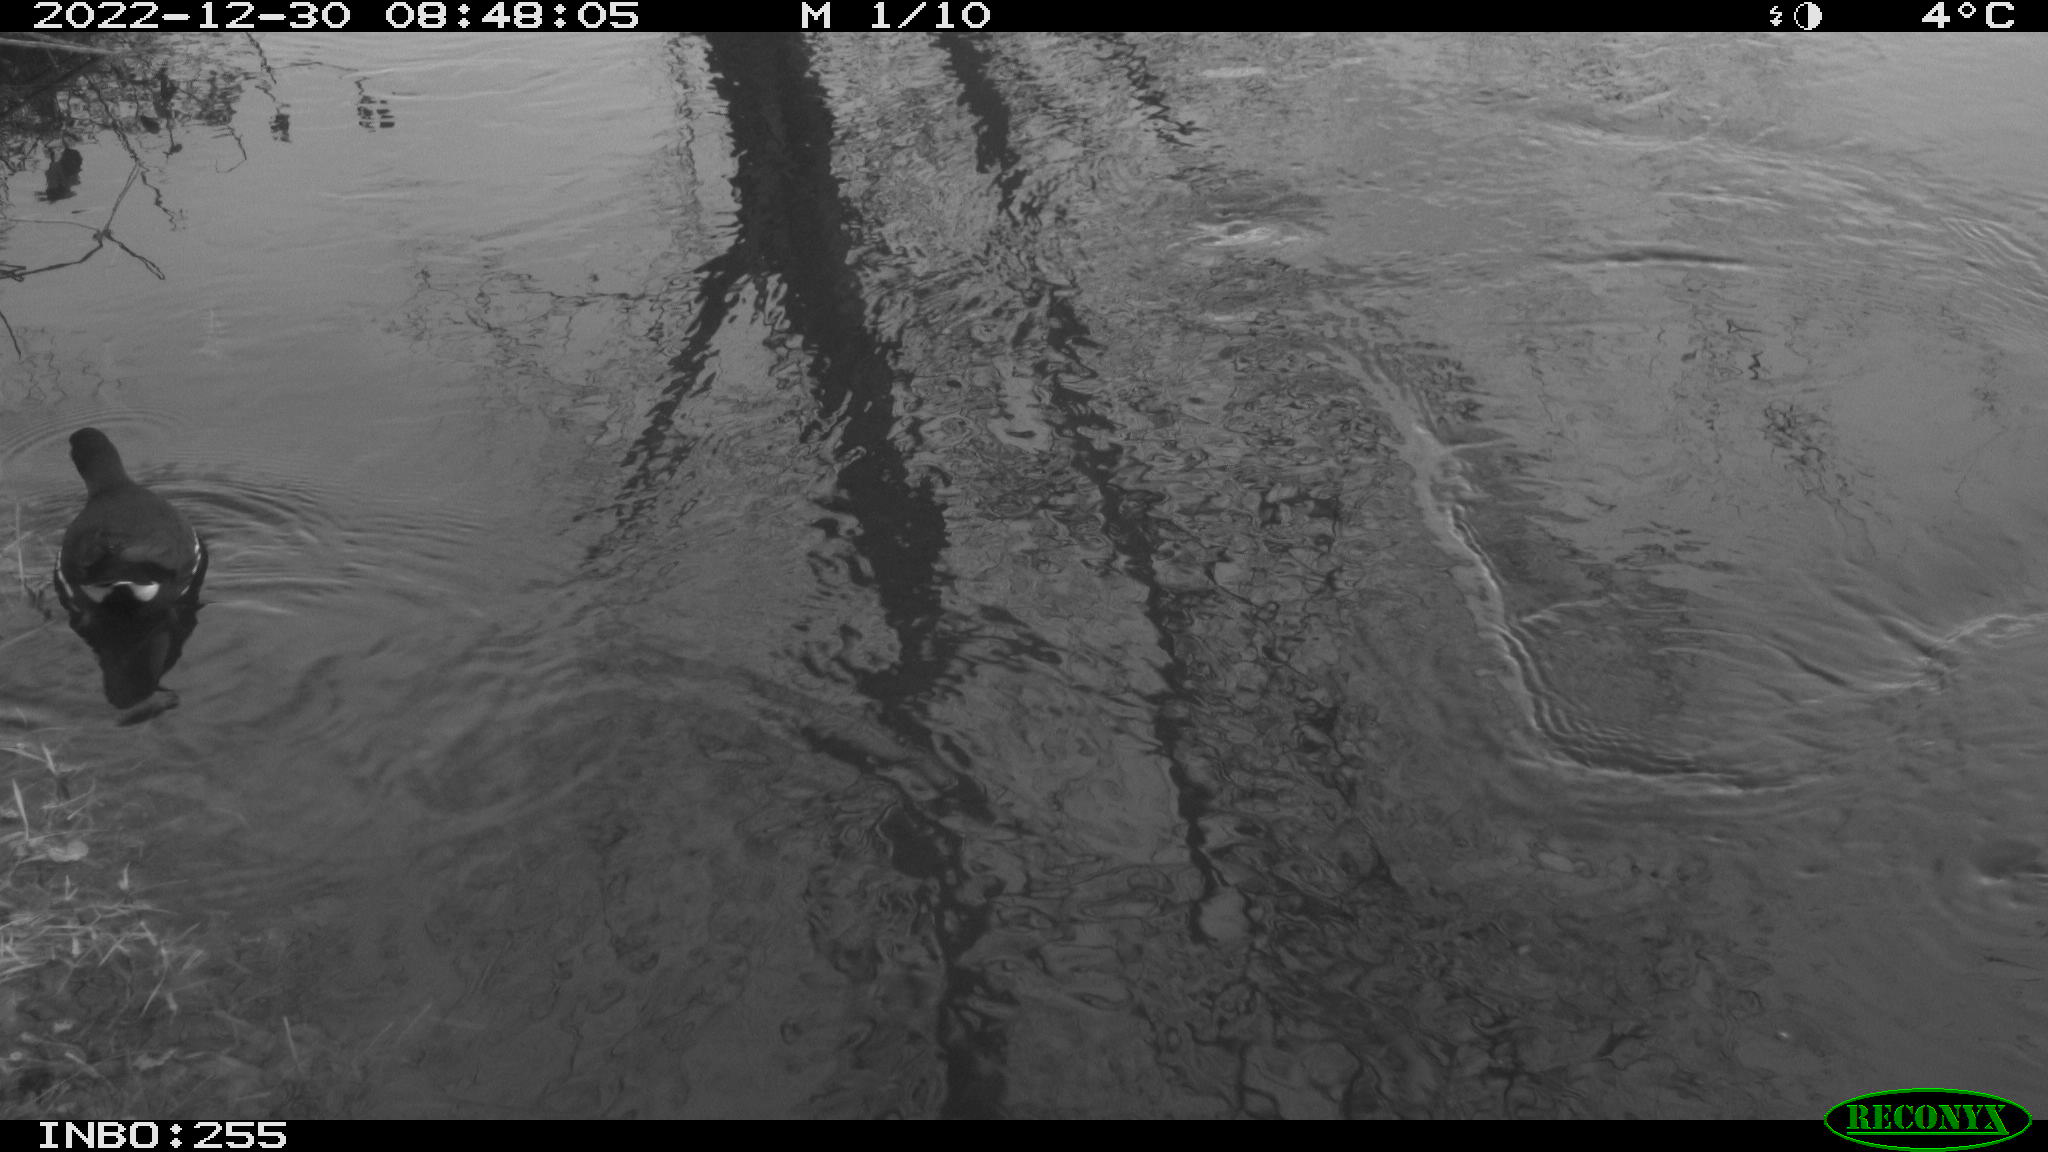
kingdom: Animalia
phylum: Chordata
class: Aves
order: Gruiformes
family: Rallidae
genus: Gallinula
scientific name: Gallinula chloropus
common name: Common moorhen
